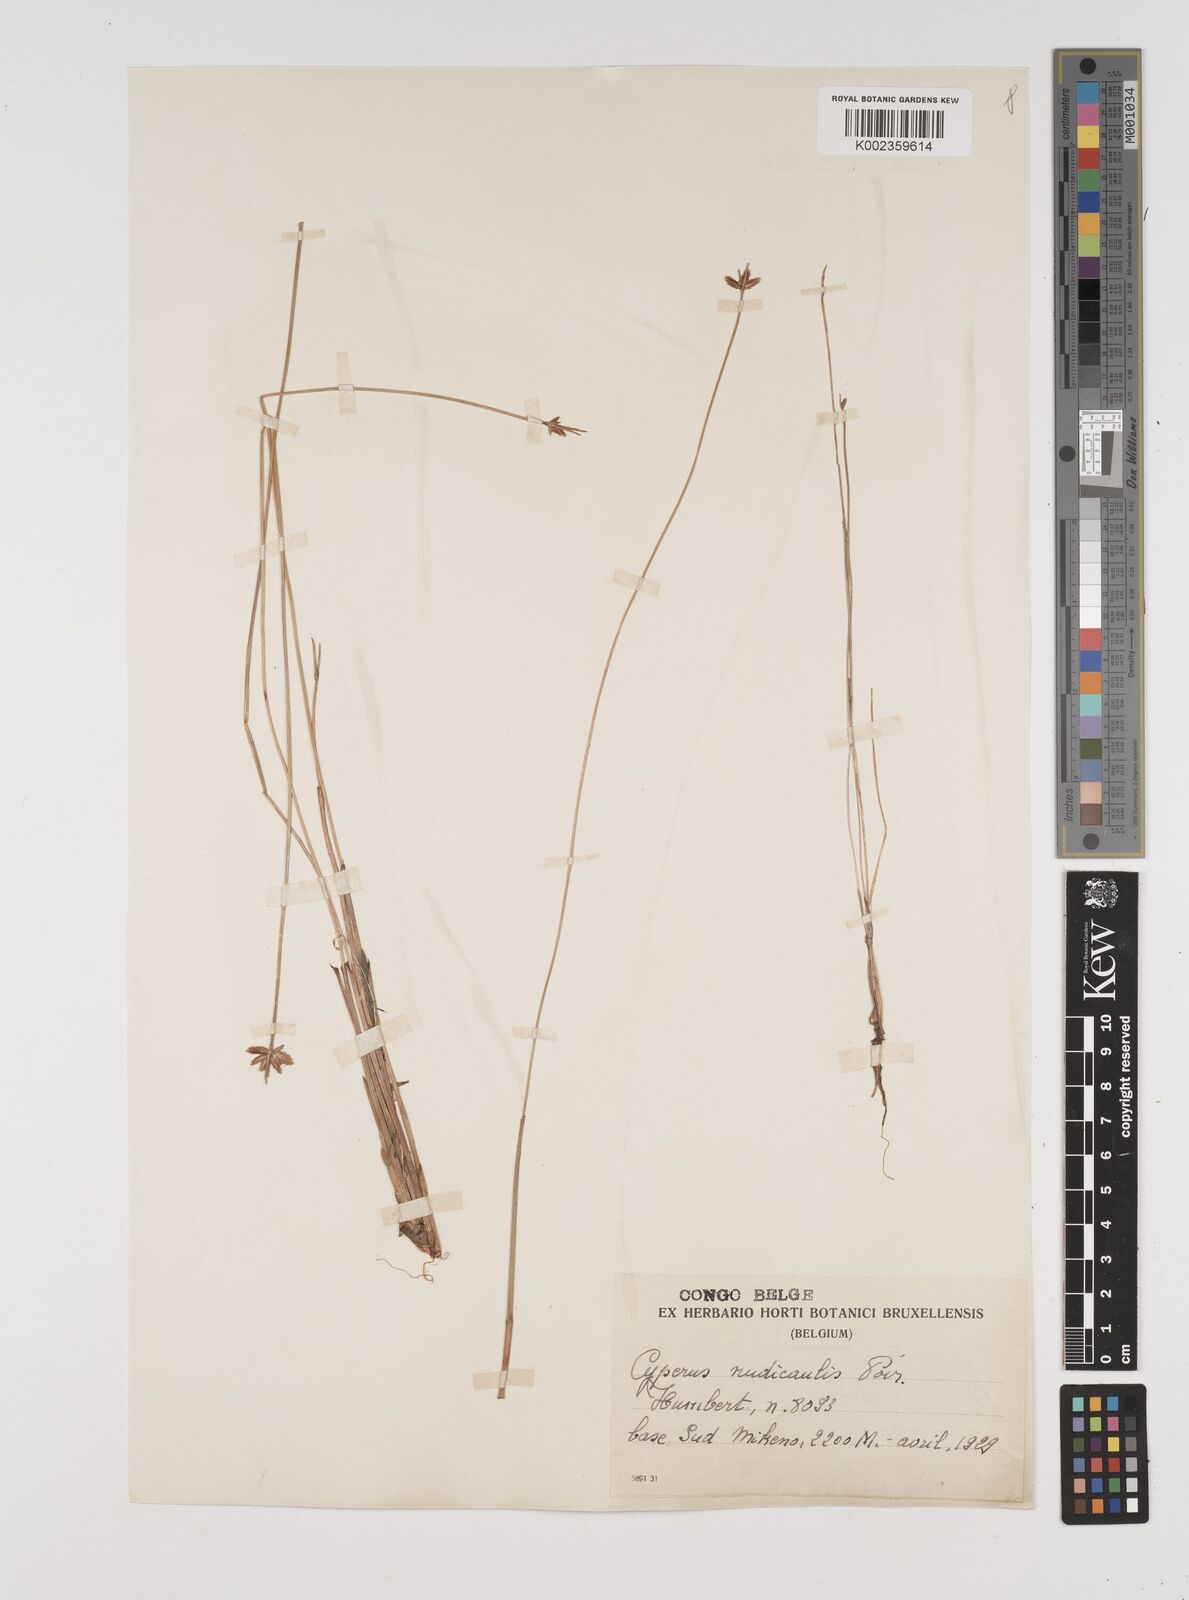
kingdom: Plantae
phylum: Tracheophyta
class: Liliopsida
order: Poales
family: Cyperaceae
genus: Cyperus
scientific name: Cyperus pectinatus
